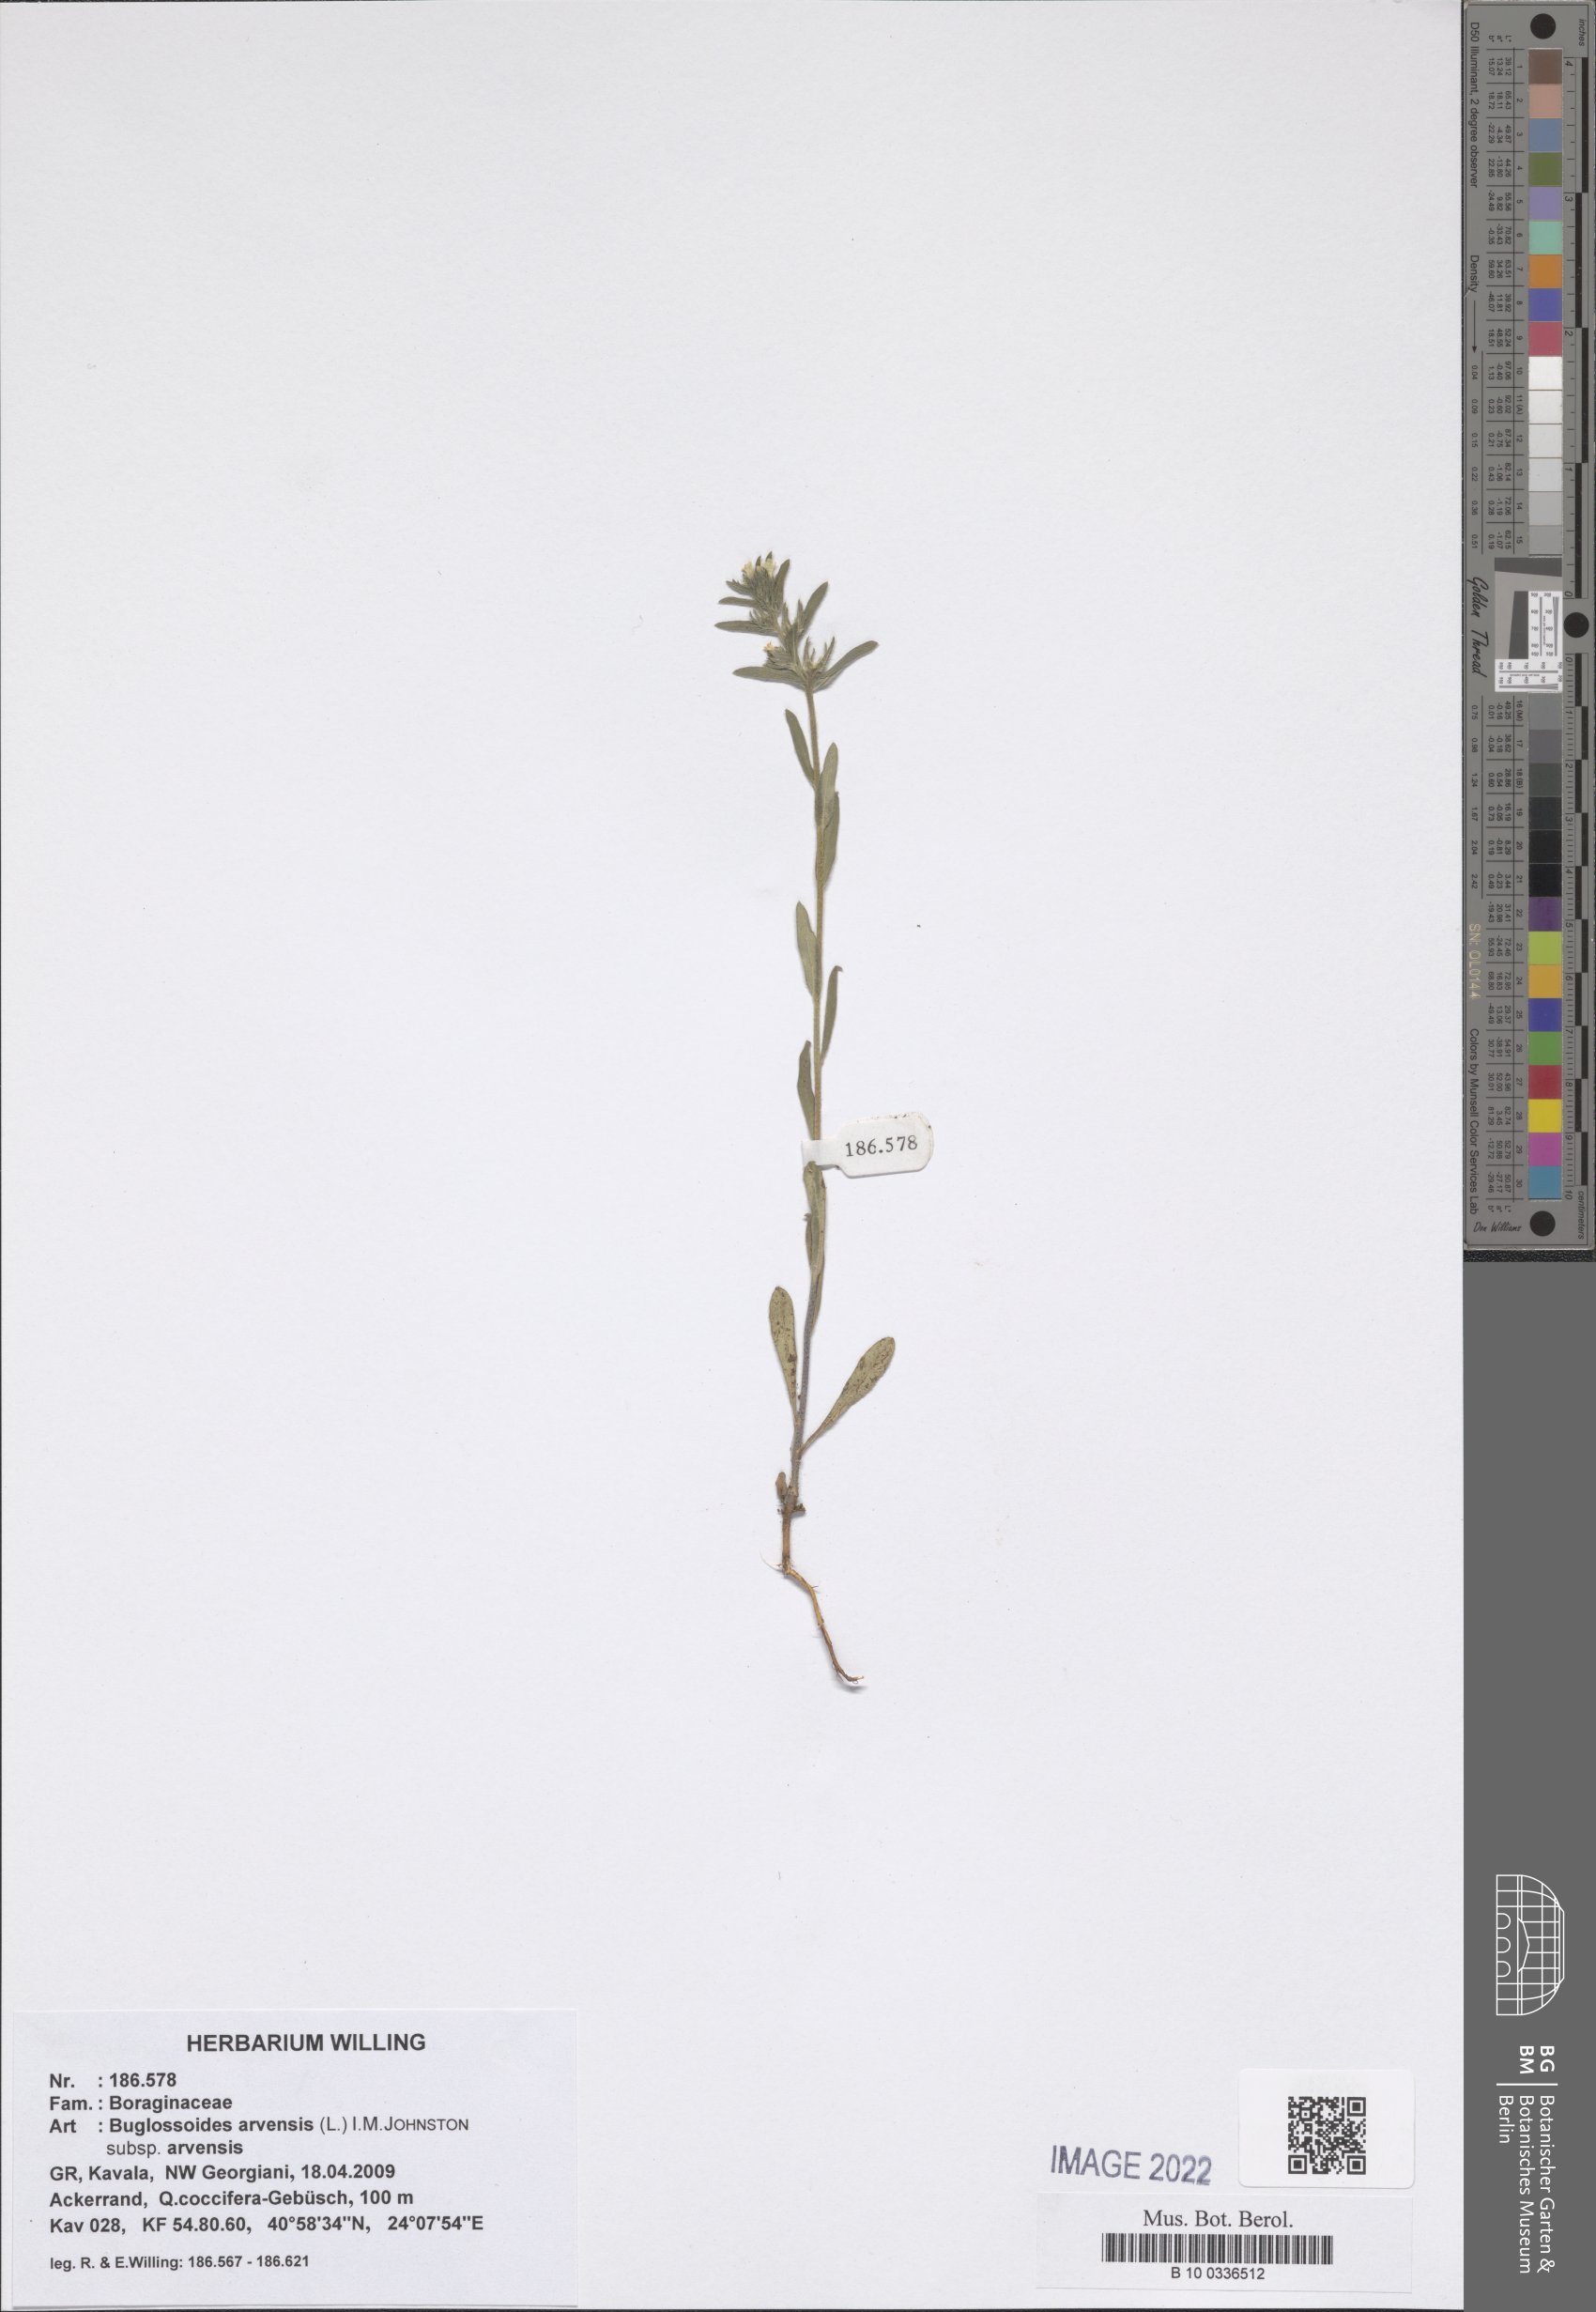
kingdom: Plantae
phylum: Tracheophyta
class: Magnoliopsida
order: Boraginales
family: Boraginaceae
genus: Buglossoides
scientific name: Buglossoides arvensis
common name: Corn gromwell
